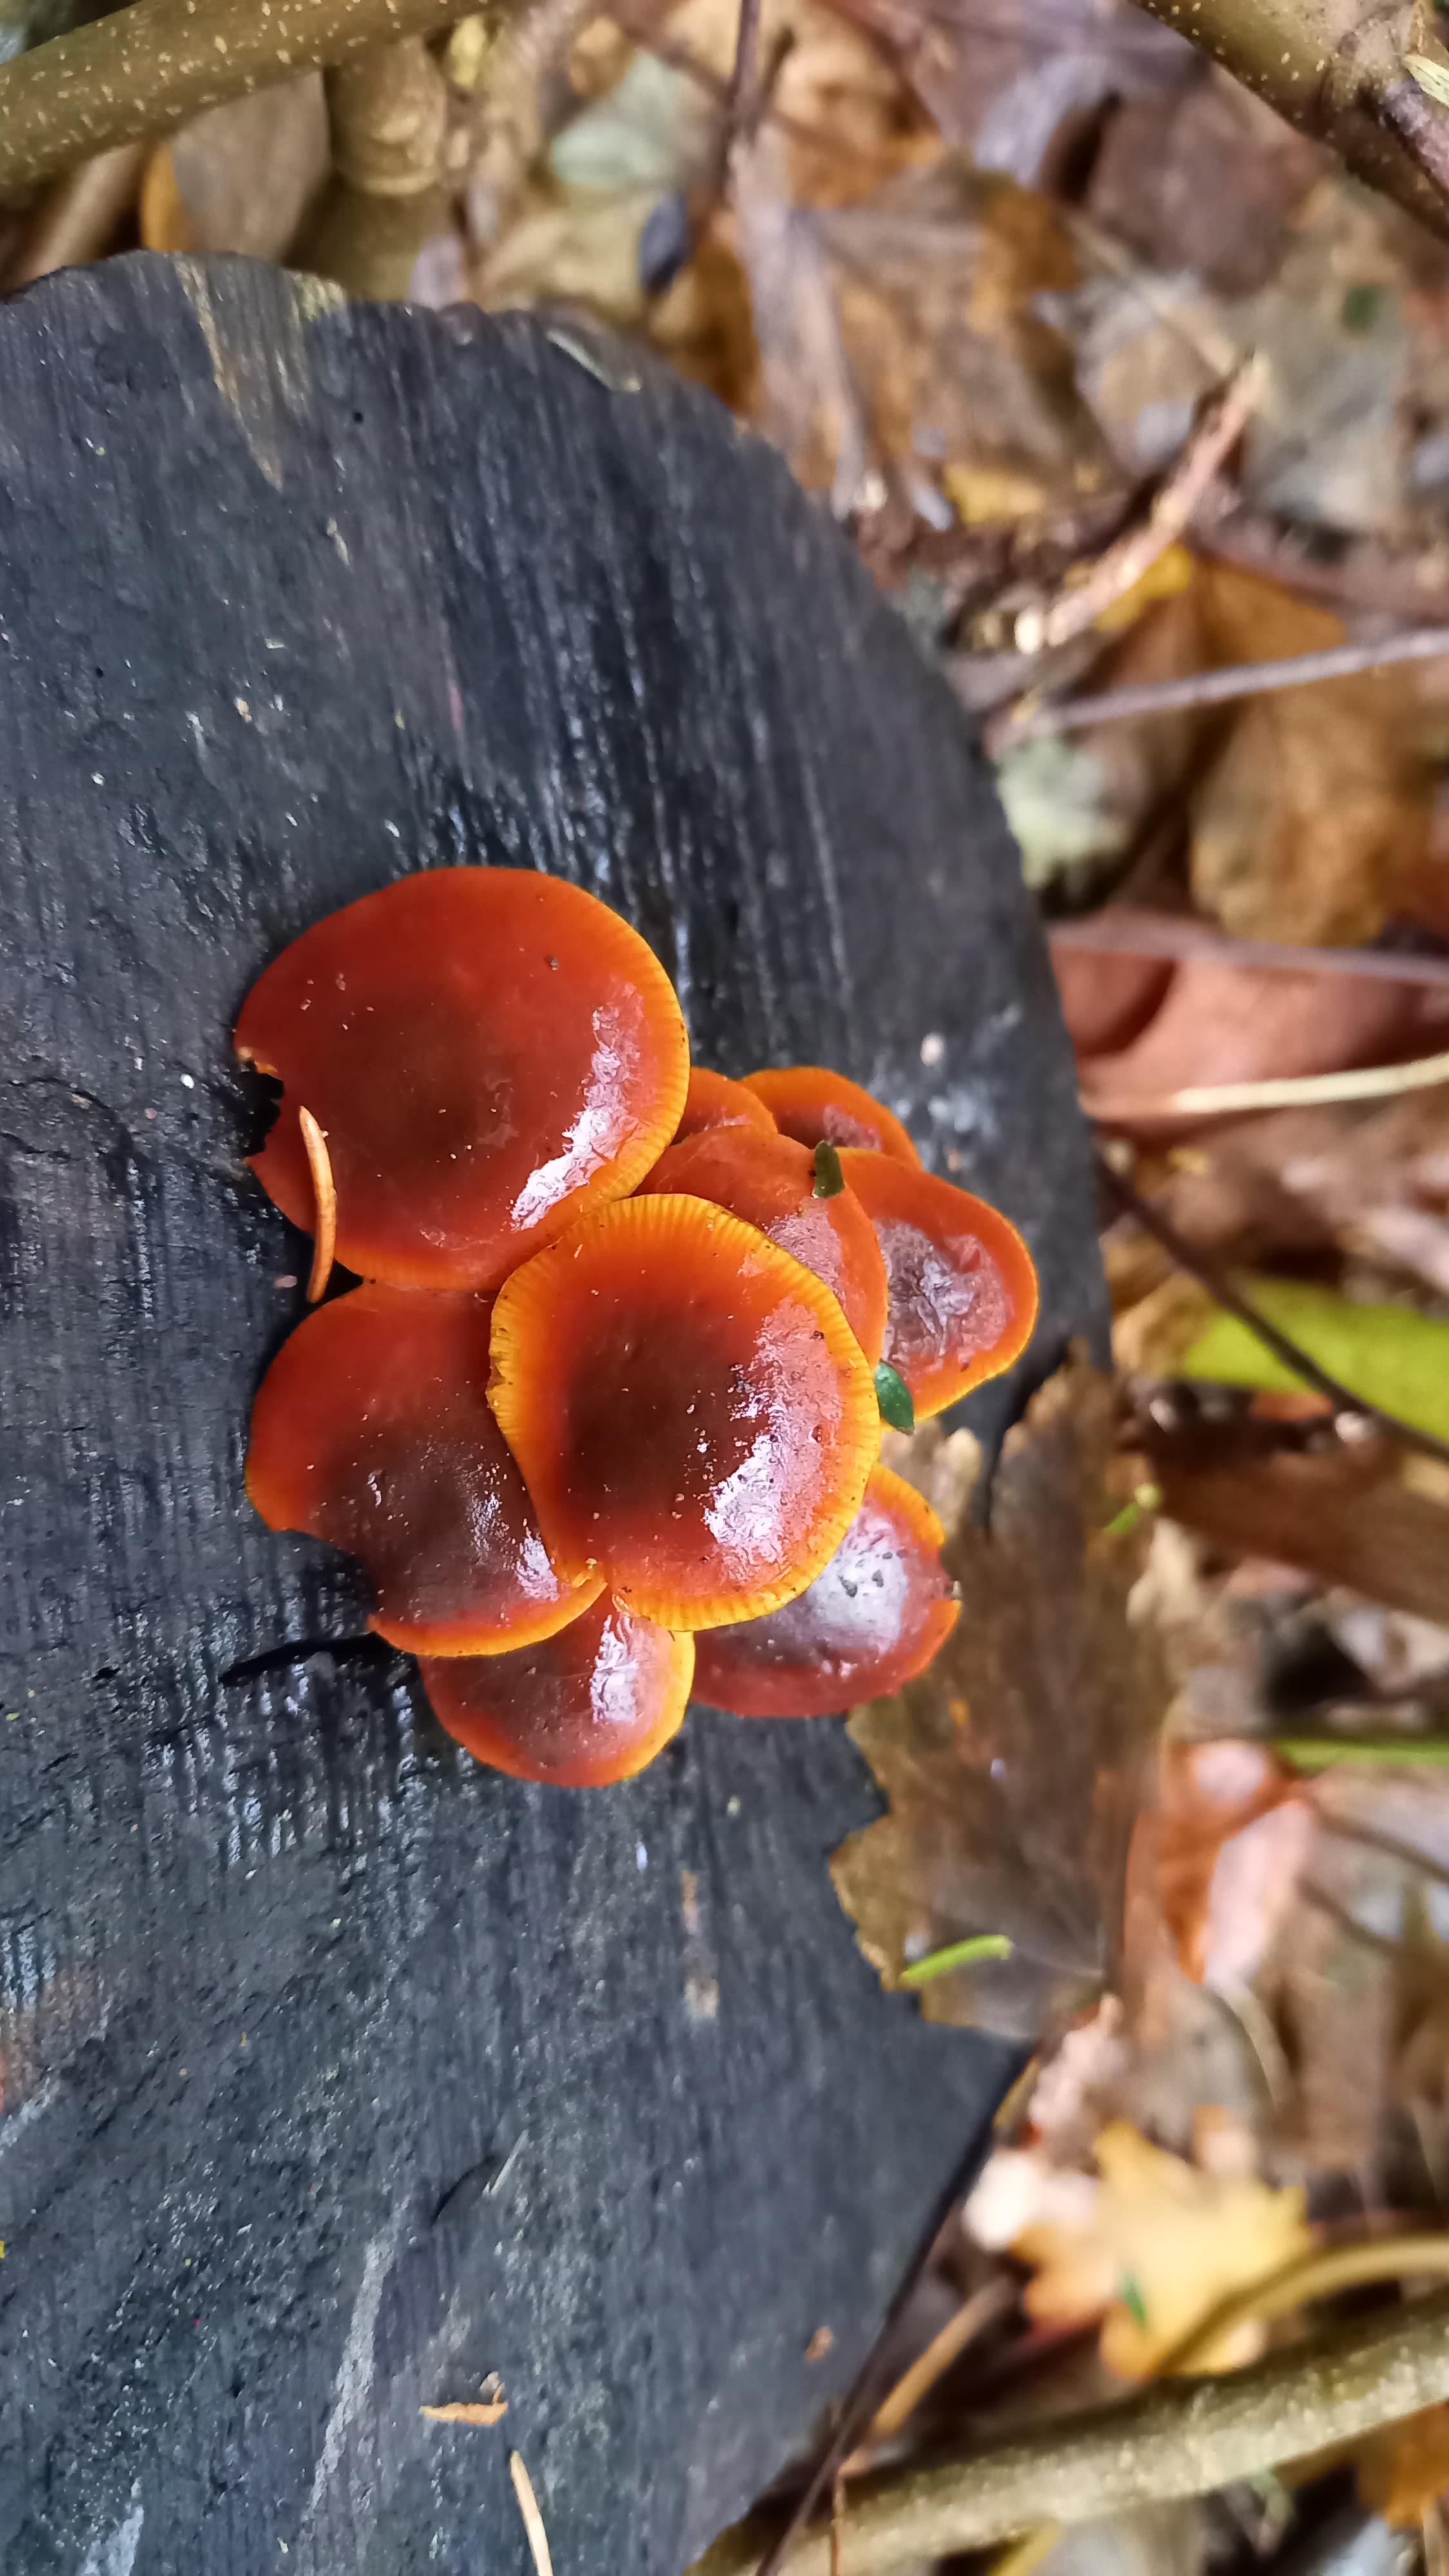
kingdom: Fungi
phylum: Basidiomycota
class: Agaricomycetes
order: Agaricales
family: Physalacriaceae
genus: Flammulina
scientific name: Flammulina velutipes
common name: gul fløjlsfod
